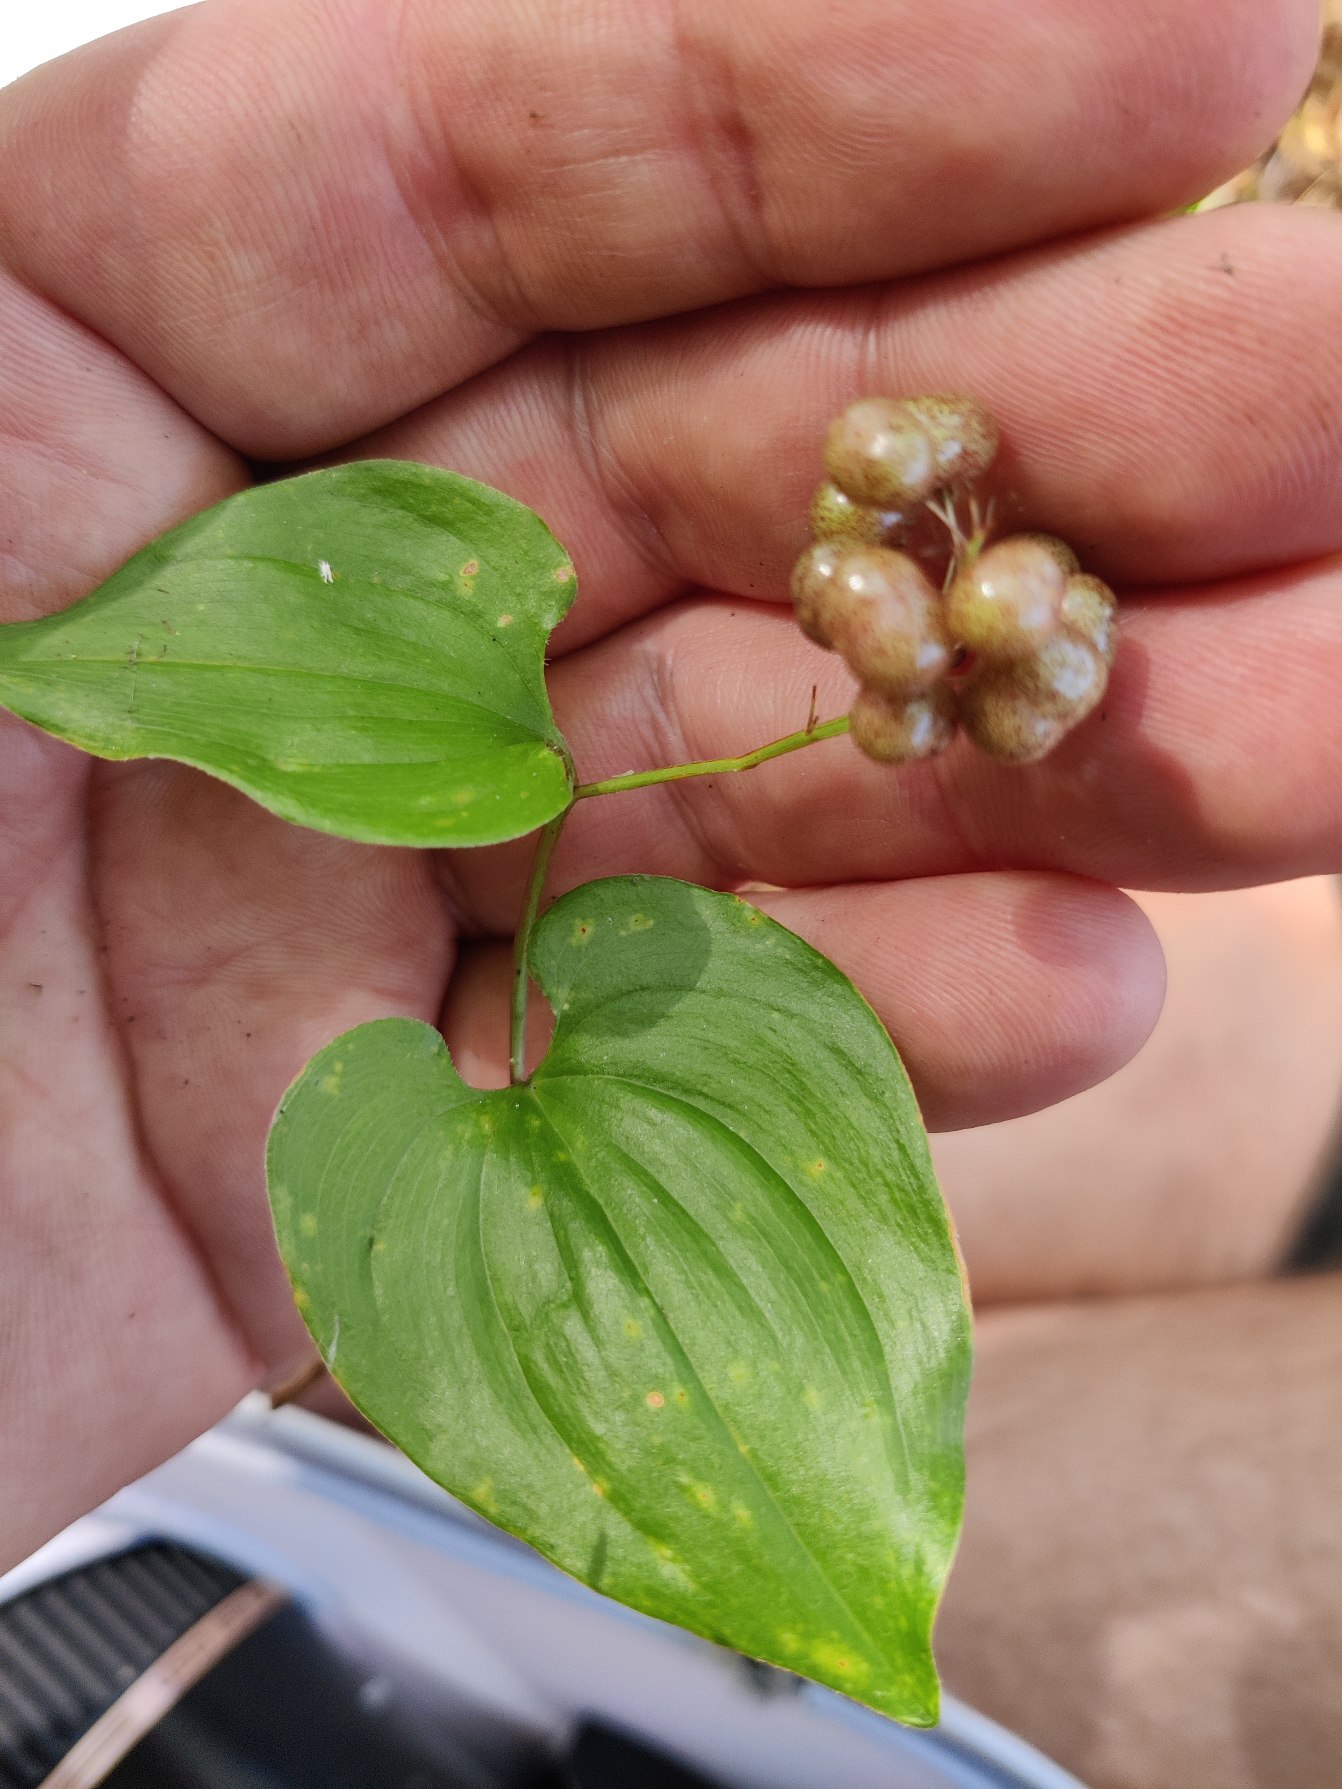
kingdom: Plantae
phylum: Tracheophyta
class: Liliopsida
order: Asparagales
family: Asparagaceae
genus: Maianthemum
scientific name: Maianthemum bifolium
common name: Majblomst
